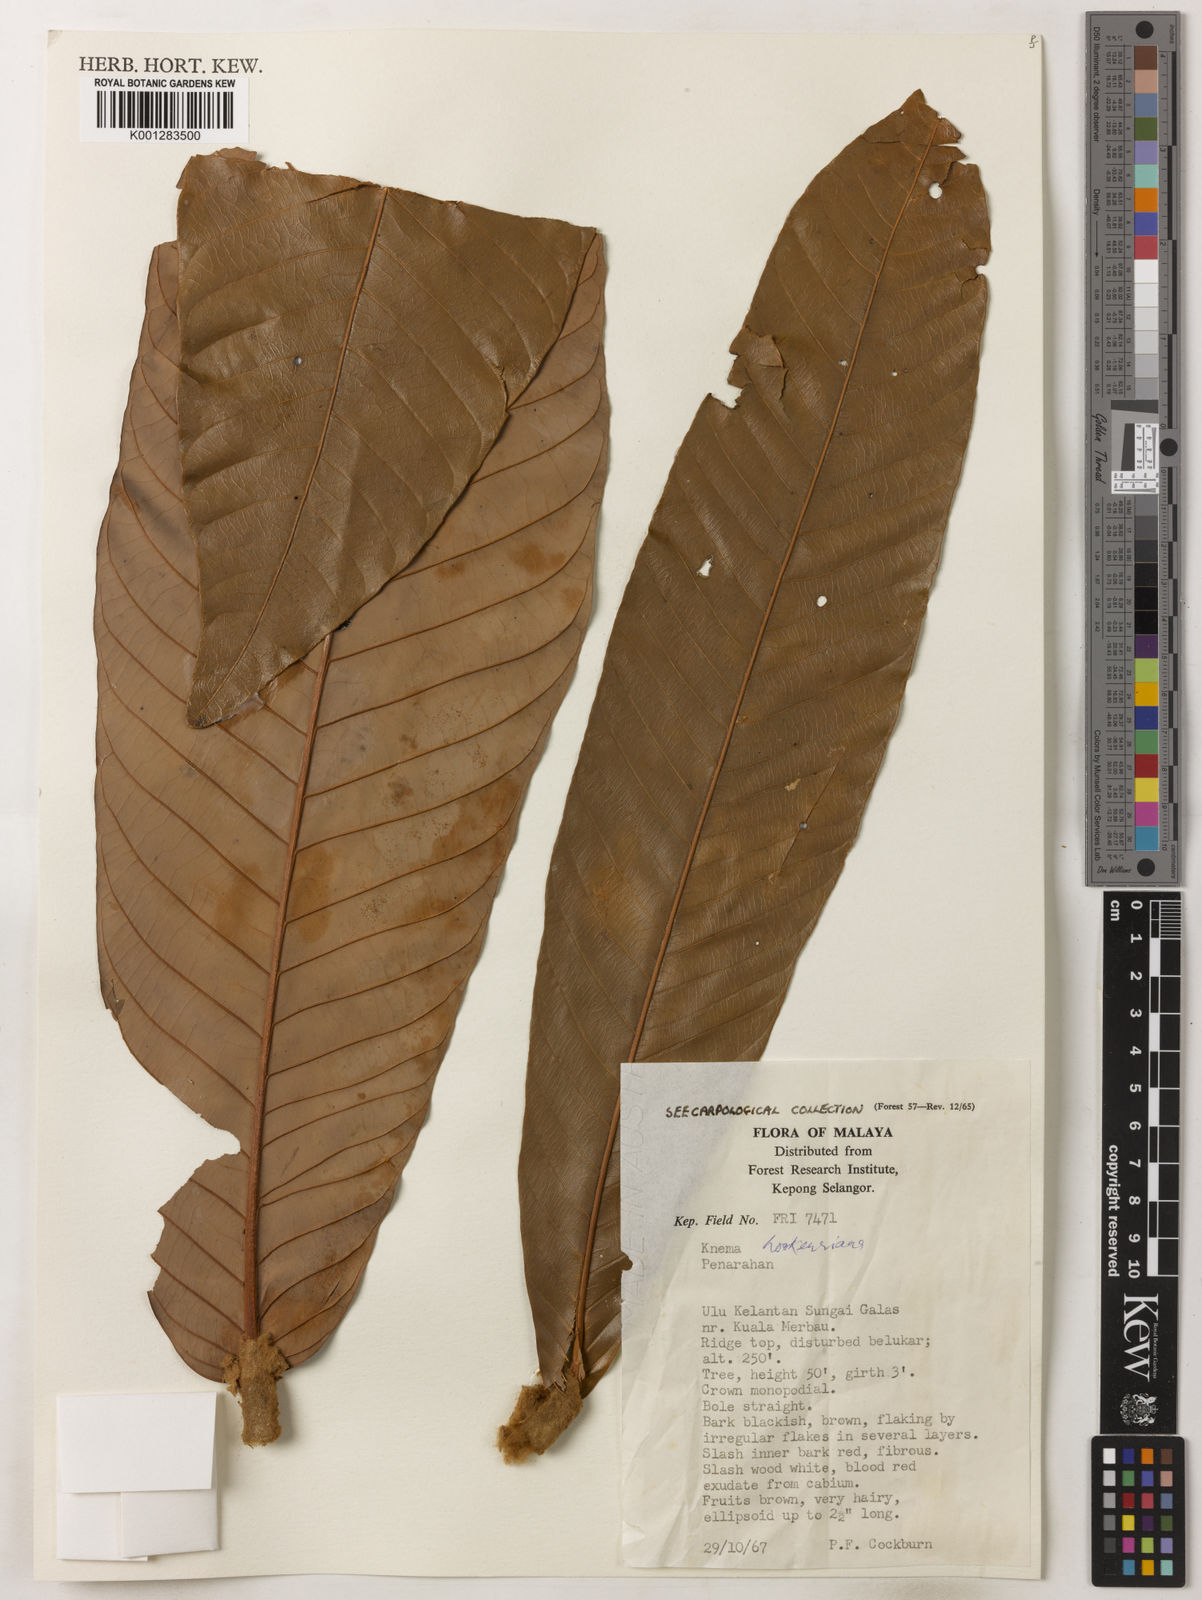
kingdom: Plantae
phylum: Tracheophyta
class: Magnoliopsida
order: Magnoliales
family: Myristicaceae
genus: Knema
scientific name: Knema hookeriana
